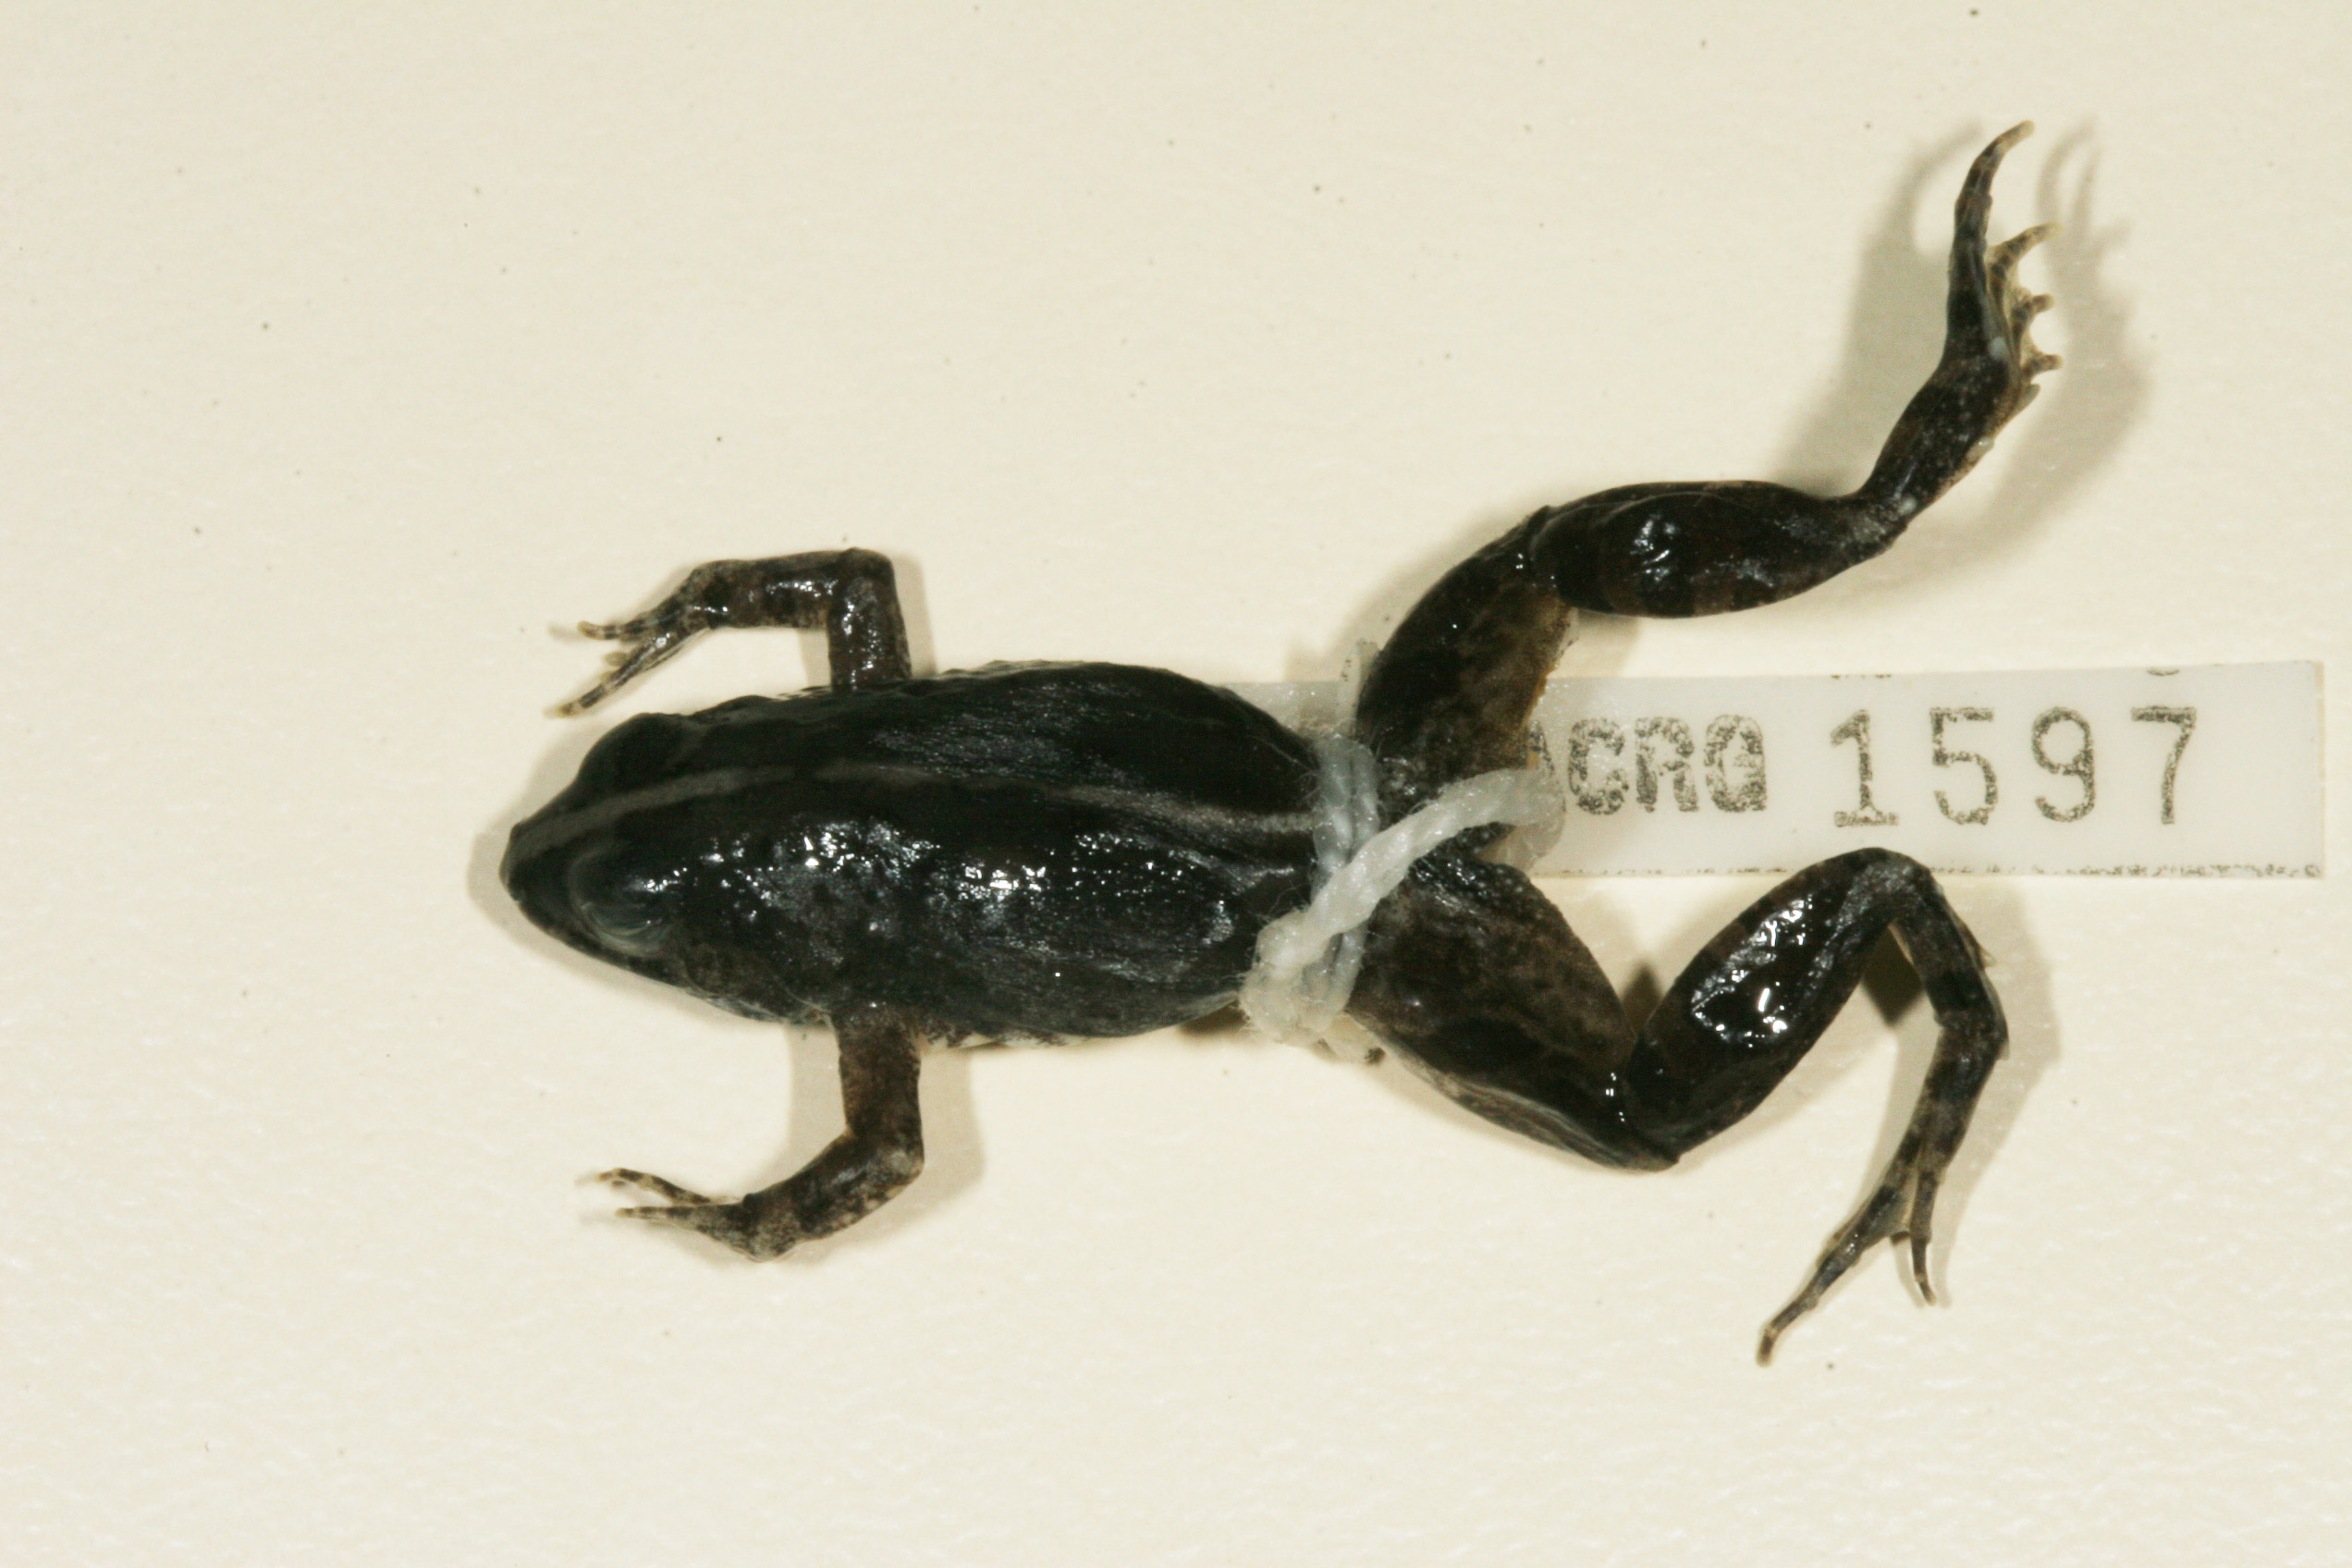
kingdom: Animalia
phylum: Chordata
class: Amphibia
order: Anura
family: Phrynobatrachidae
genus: Phrynobatrachus
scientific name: Phrynobatrachus natalensis
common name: Snoring puddle frog
